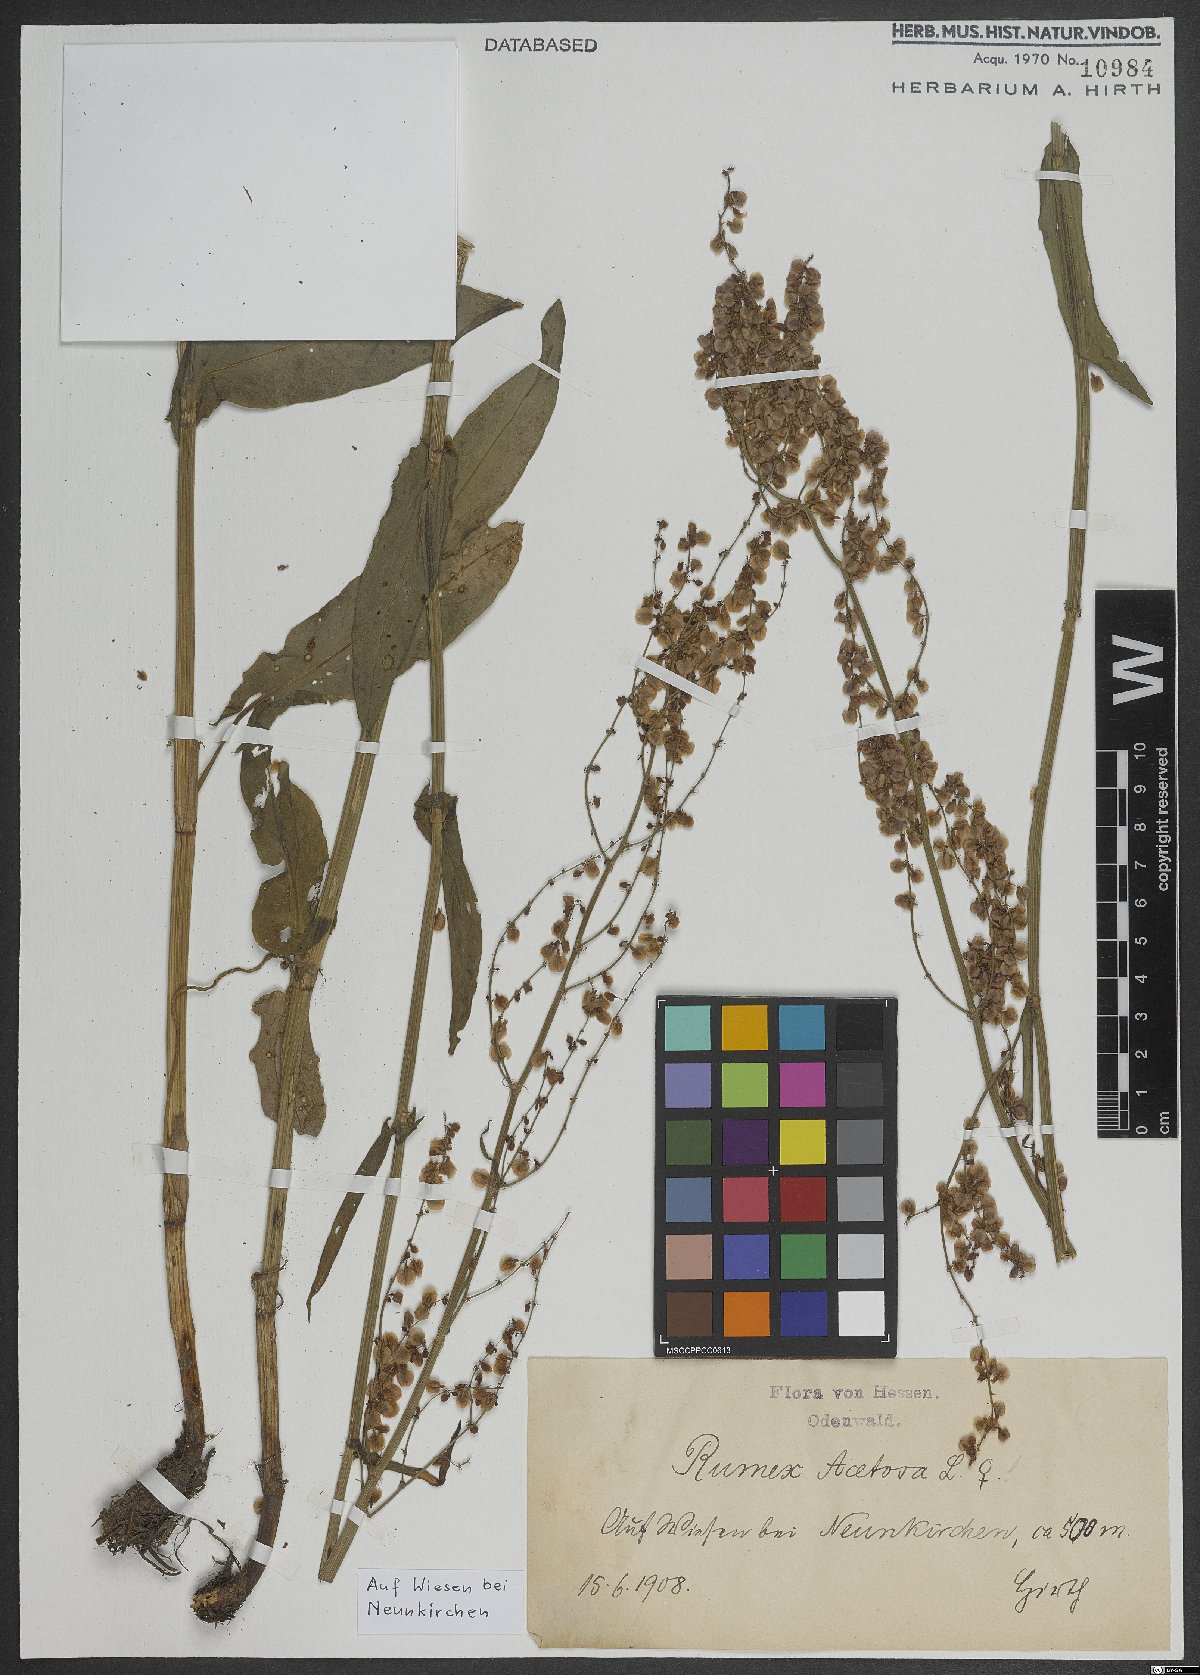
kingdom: Plantae
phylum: Tracheophyta
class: Magnoliopsida
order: Caryophyllales
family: Polygonaceae
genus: Rumex
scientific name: Rumex acetosa
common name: Garden sorrel
